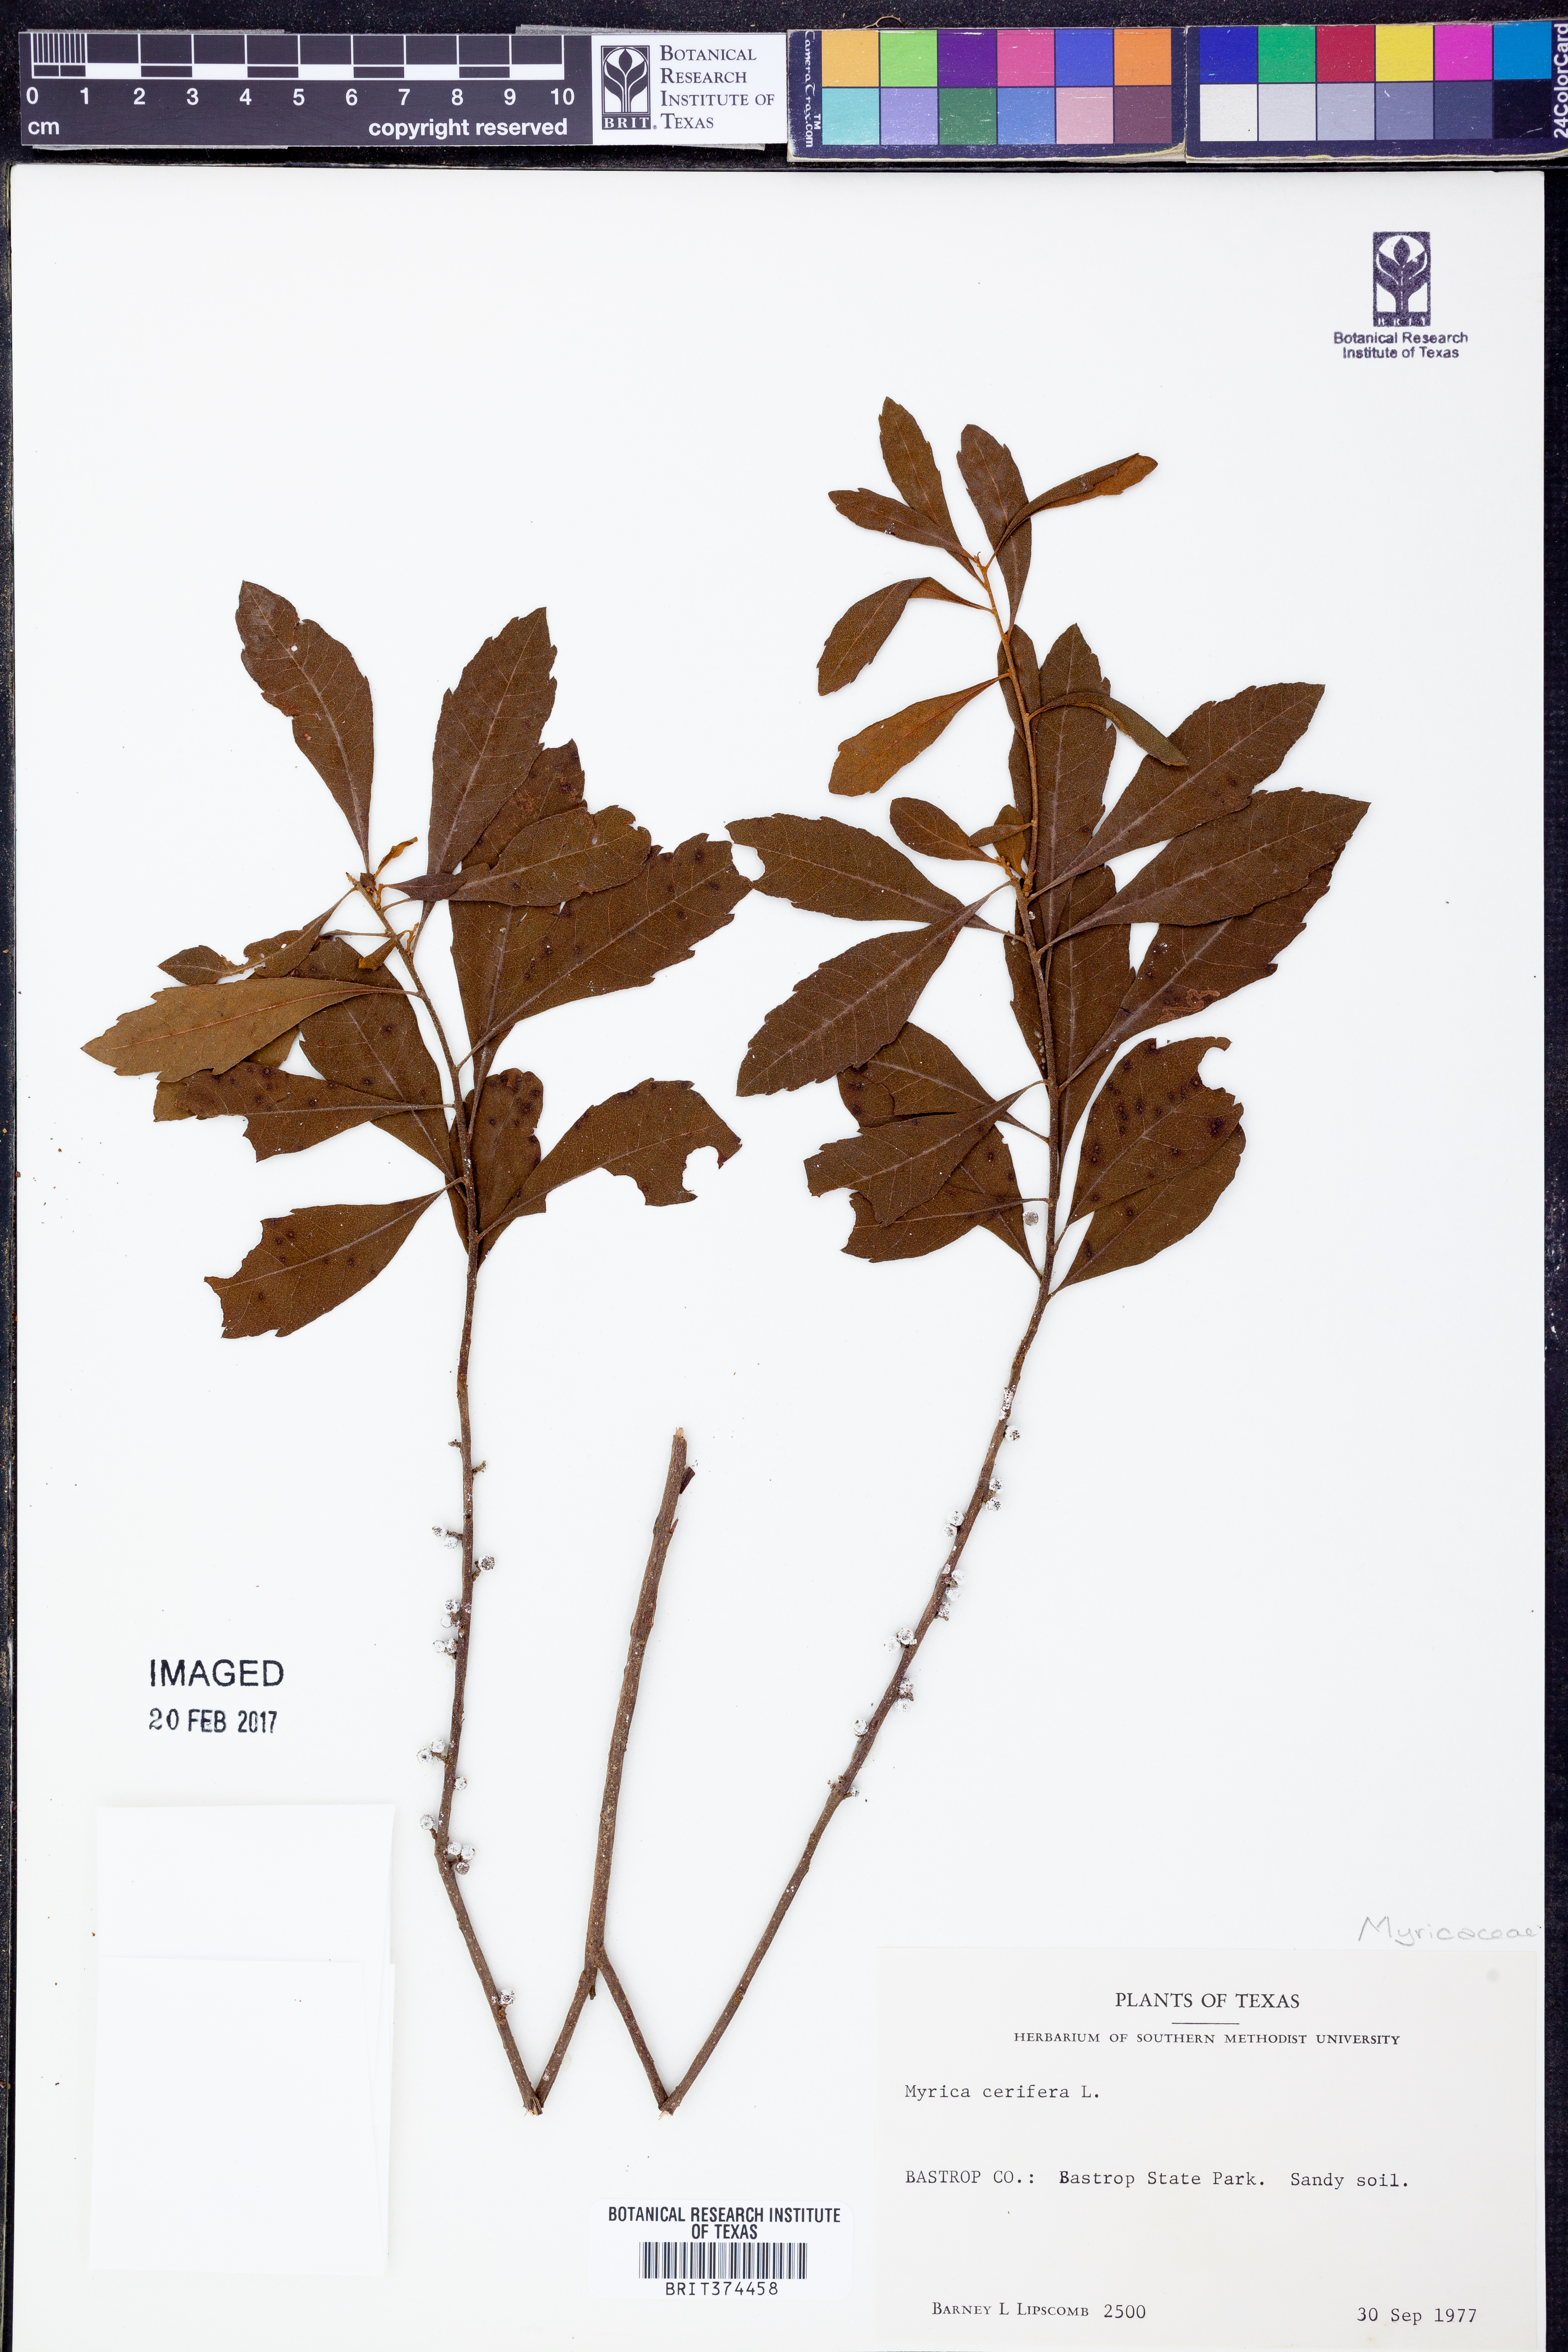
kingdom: Plantae
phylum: Tracheophyta
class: Magnoliopsida
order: Fagales
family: Myricaceae
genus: Morella
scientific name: Morella cerifera
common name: Wax myrtle
